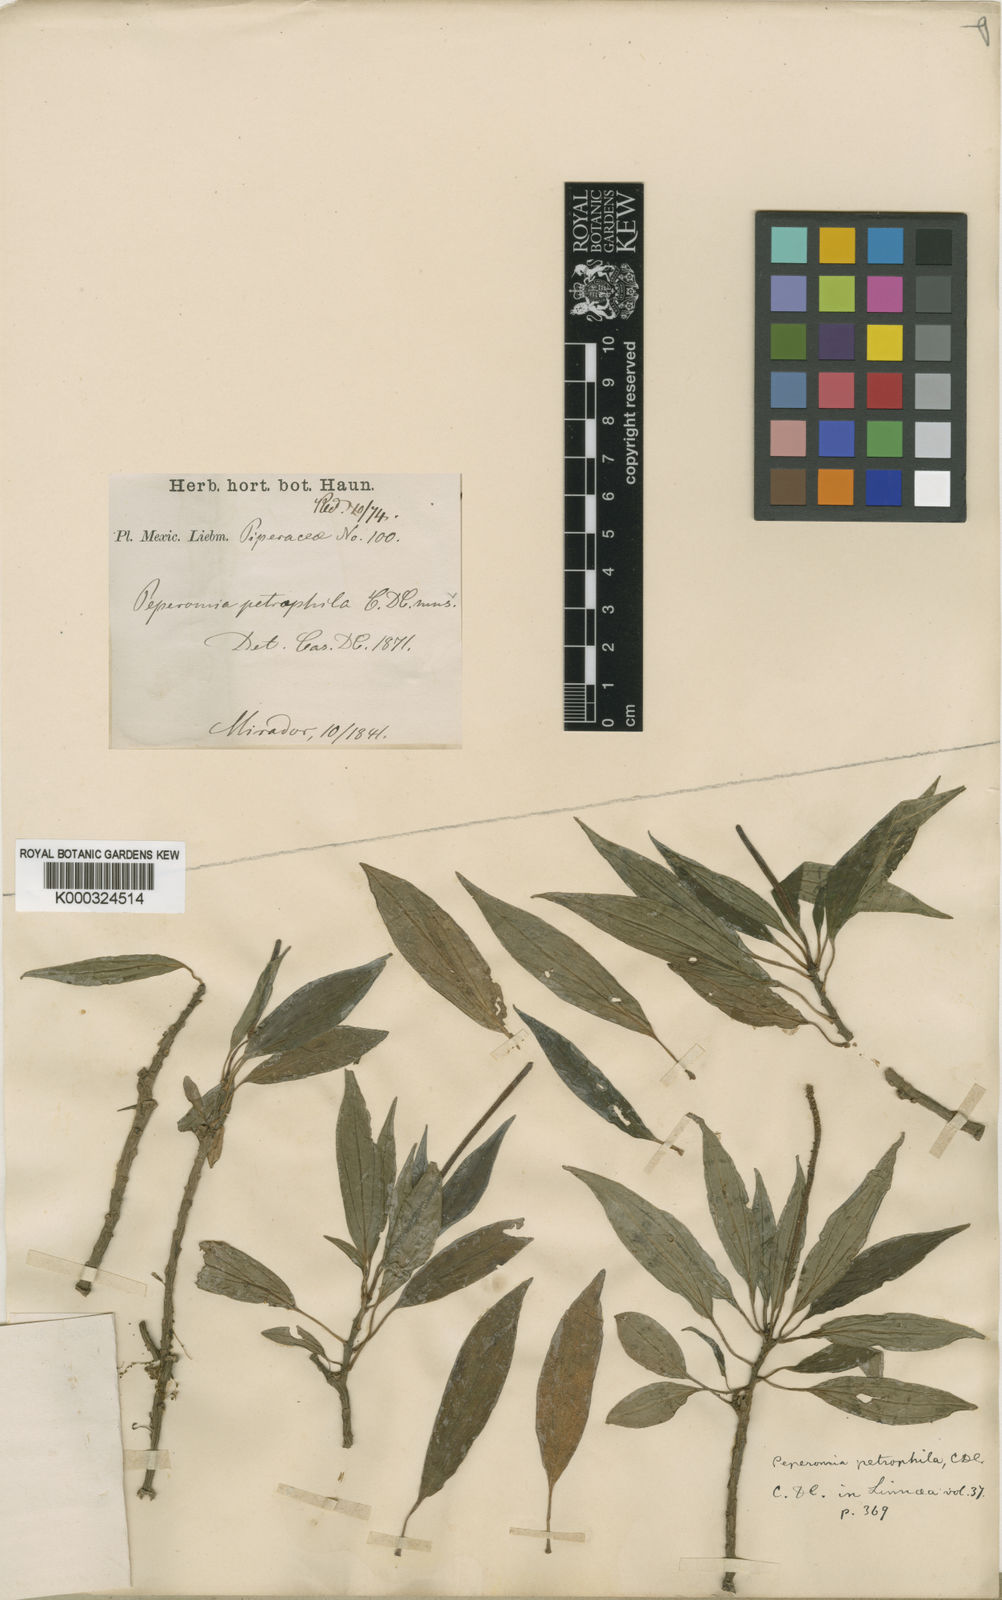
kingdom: Plantae
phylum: Tracheophyta
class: Magnoliopsida
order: Piperales
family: Piperaceae
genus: Peperomia
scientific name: Peperomia petrophila
